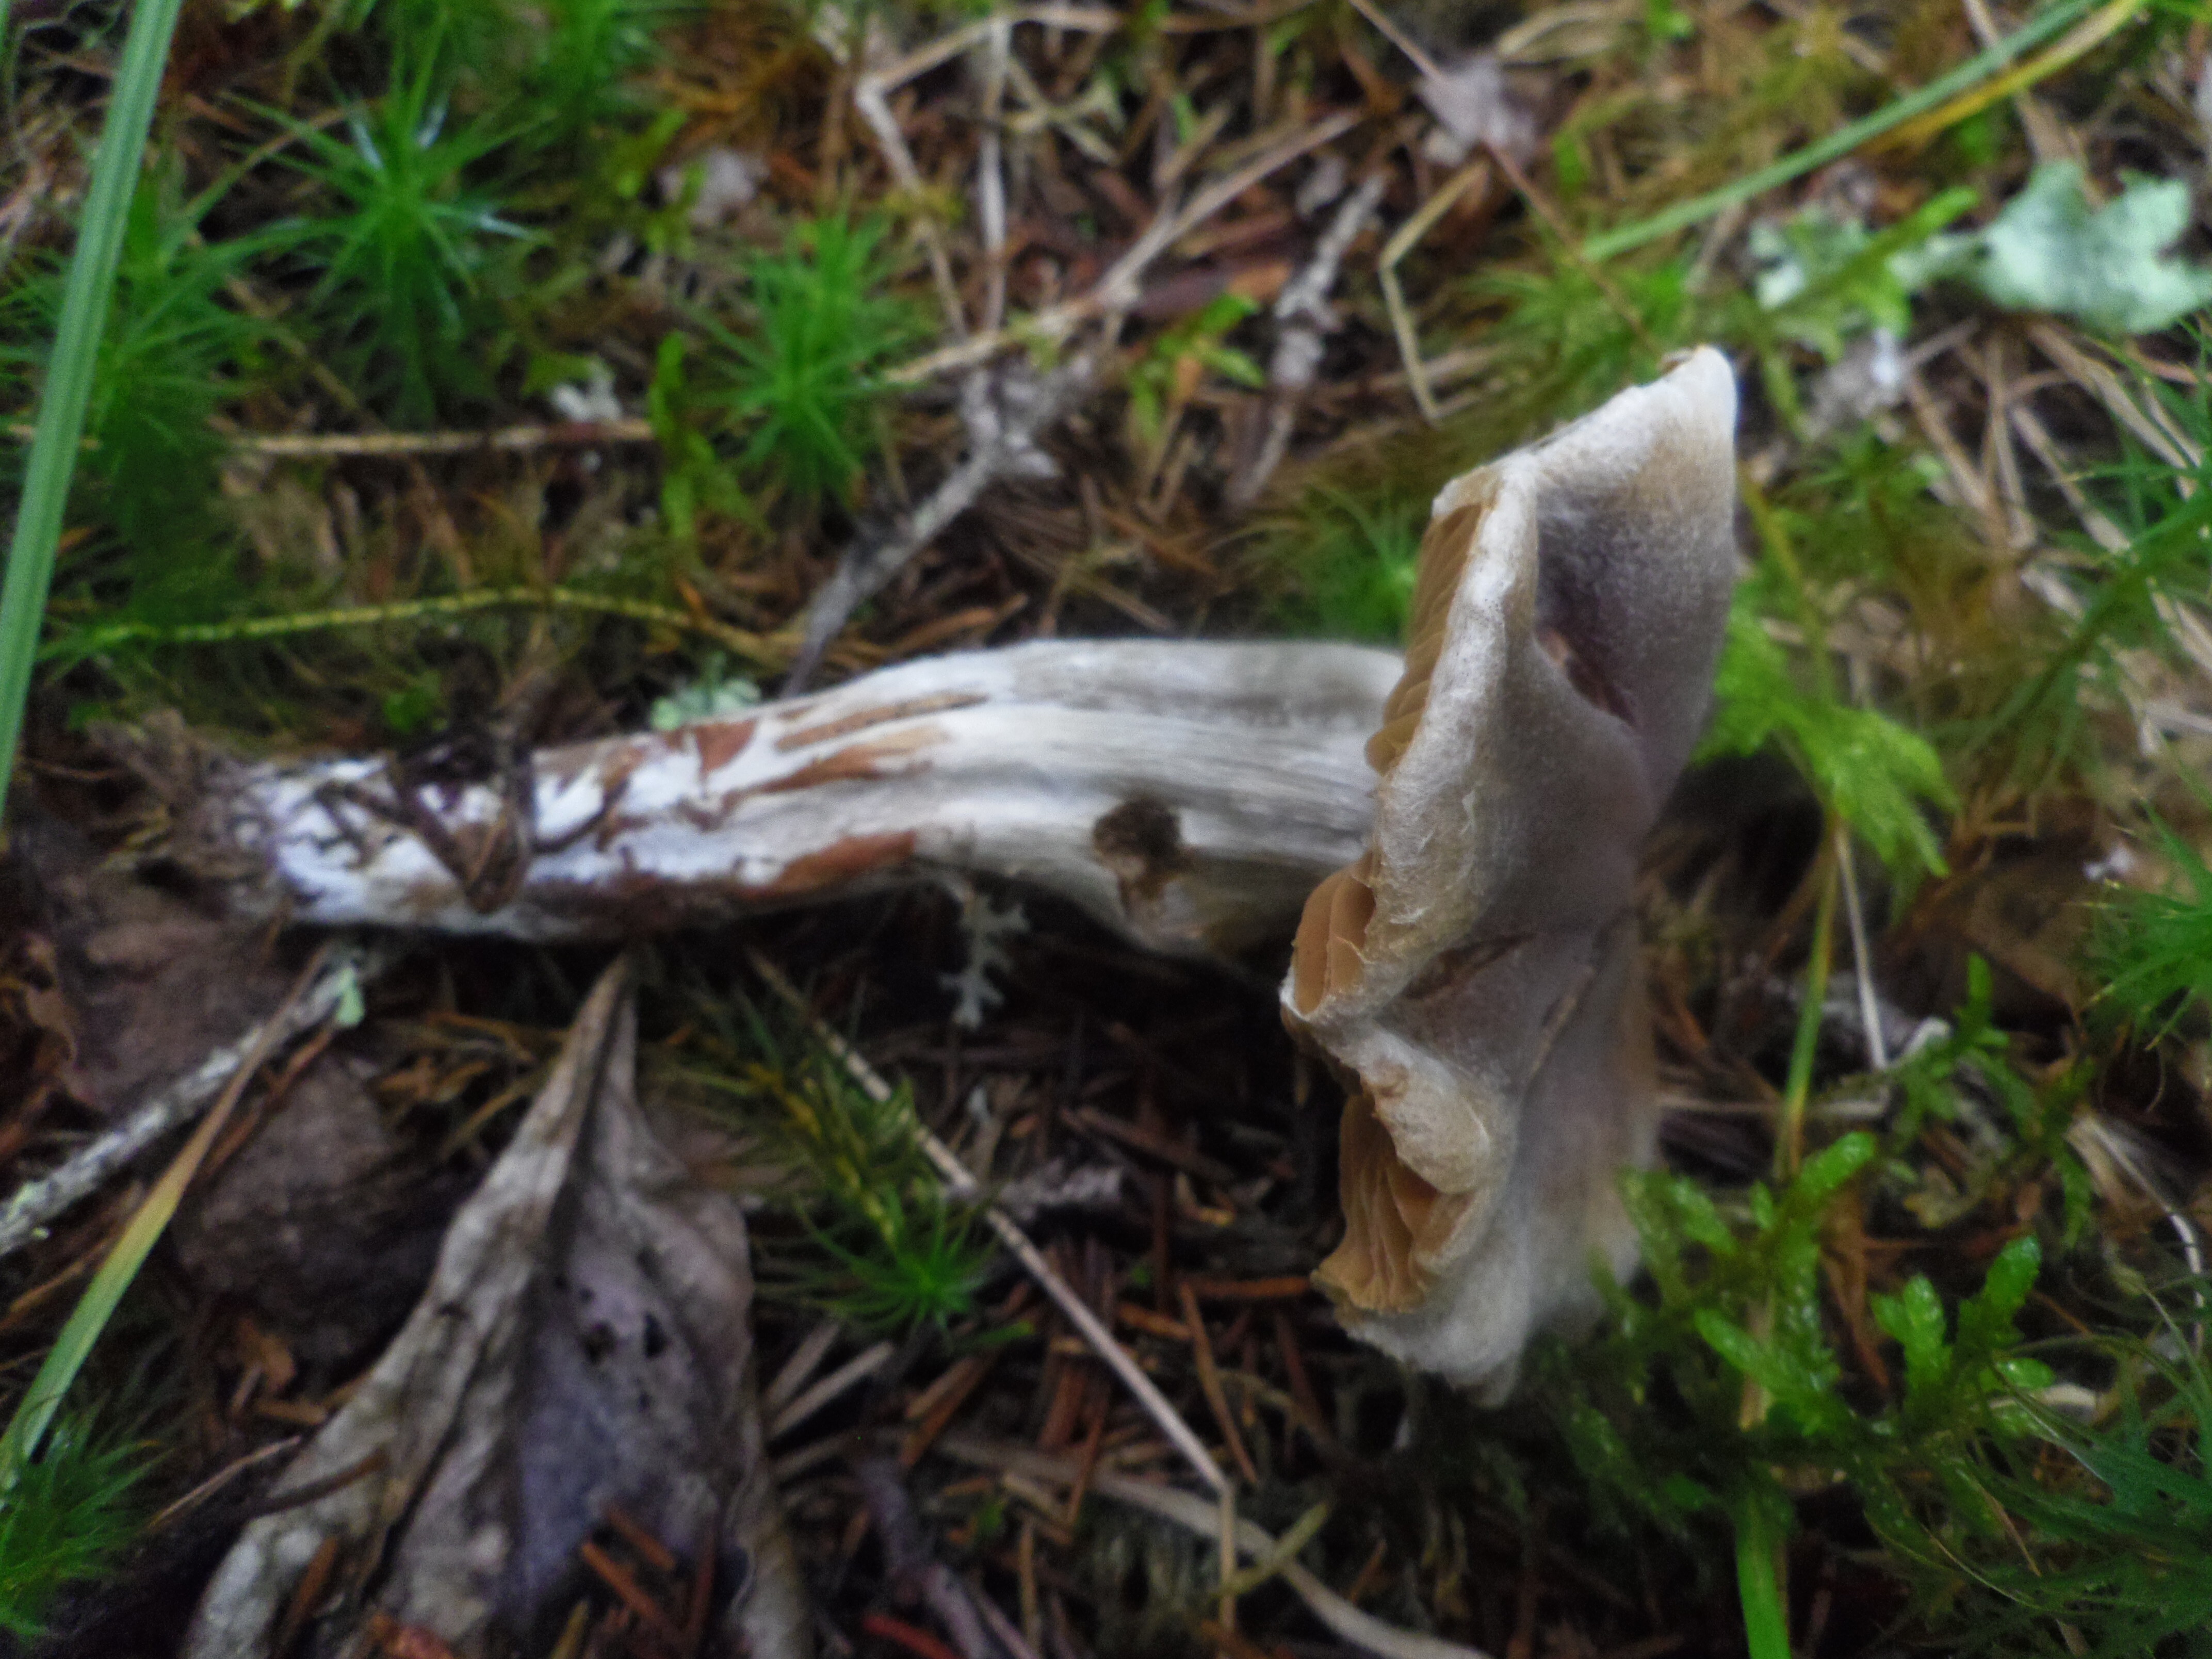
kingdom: Fungi
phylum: Basidiomycota
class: Agaricomycetes
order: Agaricales
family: Cortinariaceae
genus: Cortinarius
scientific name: Cortinarius
